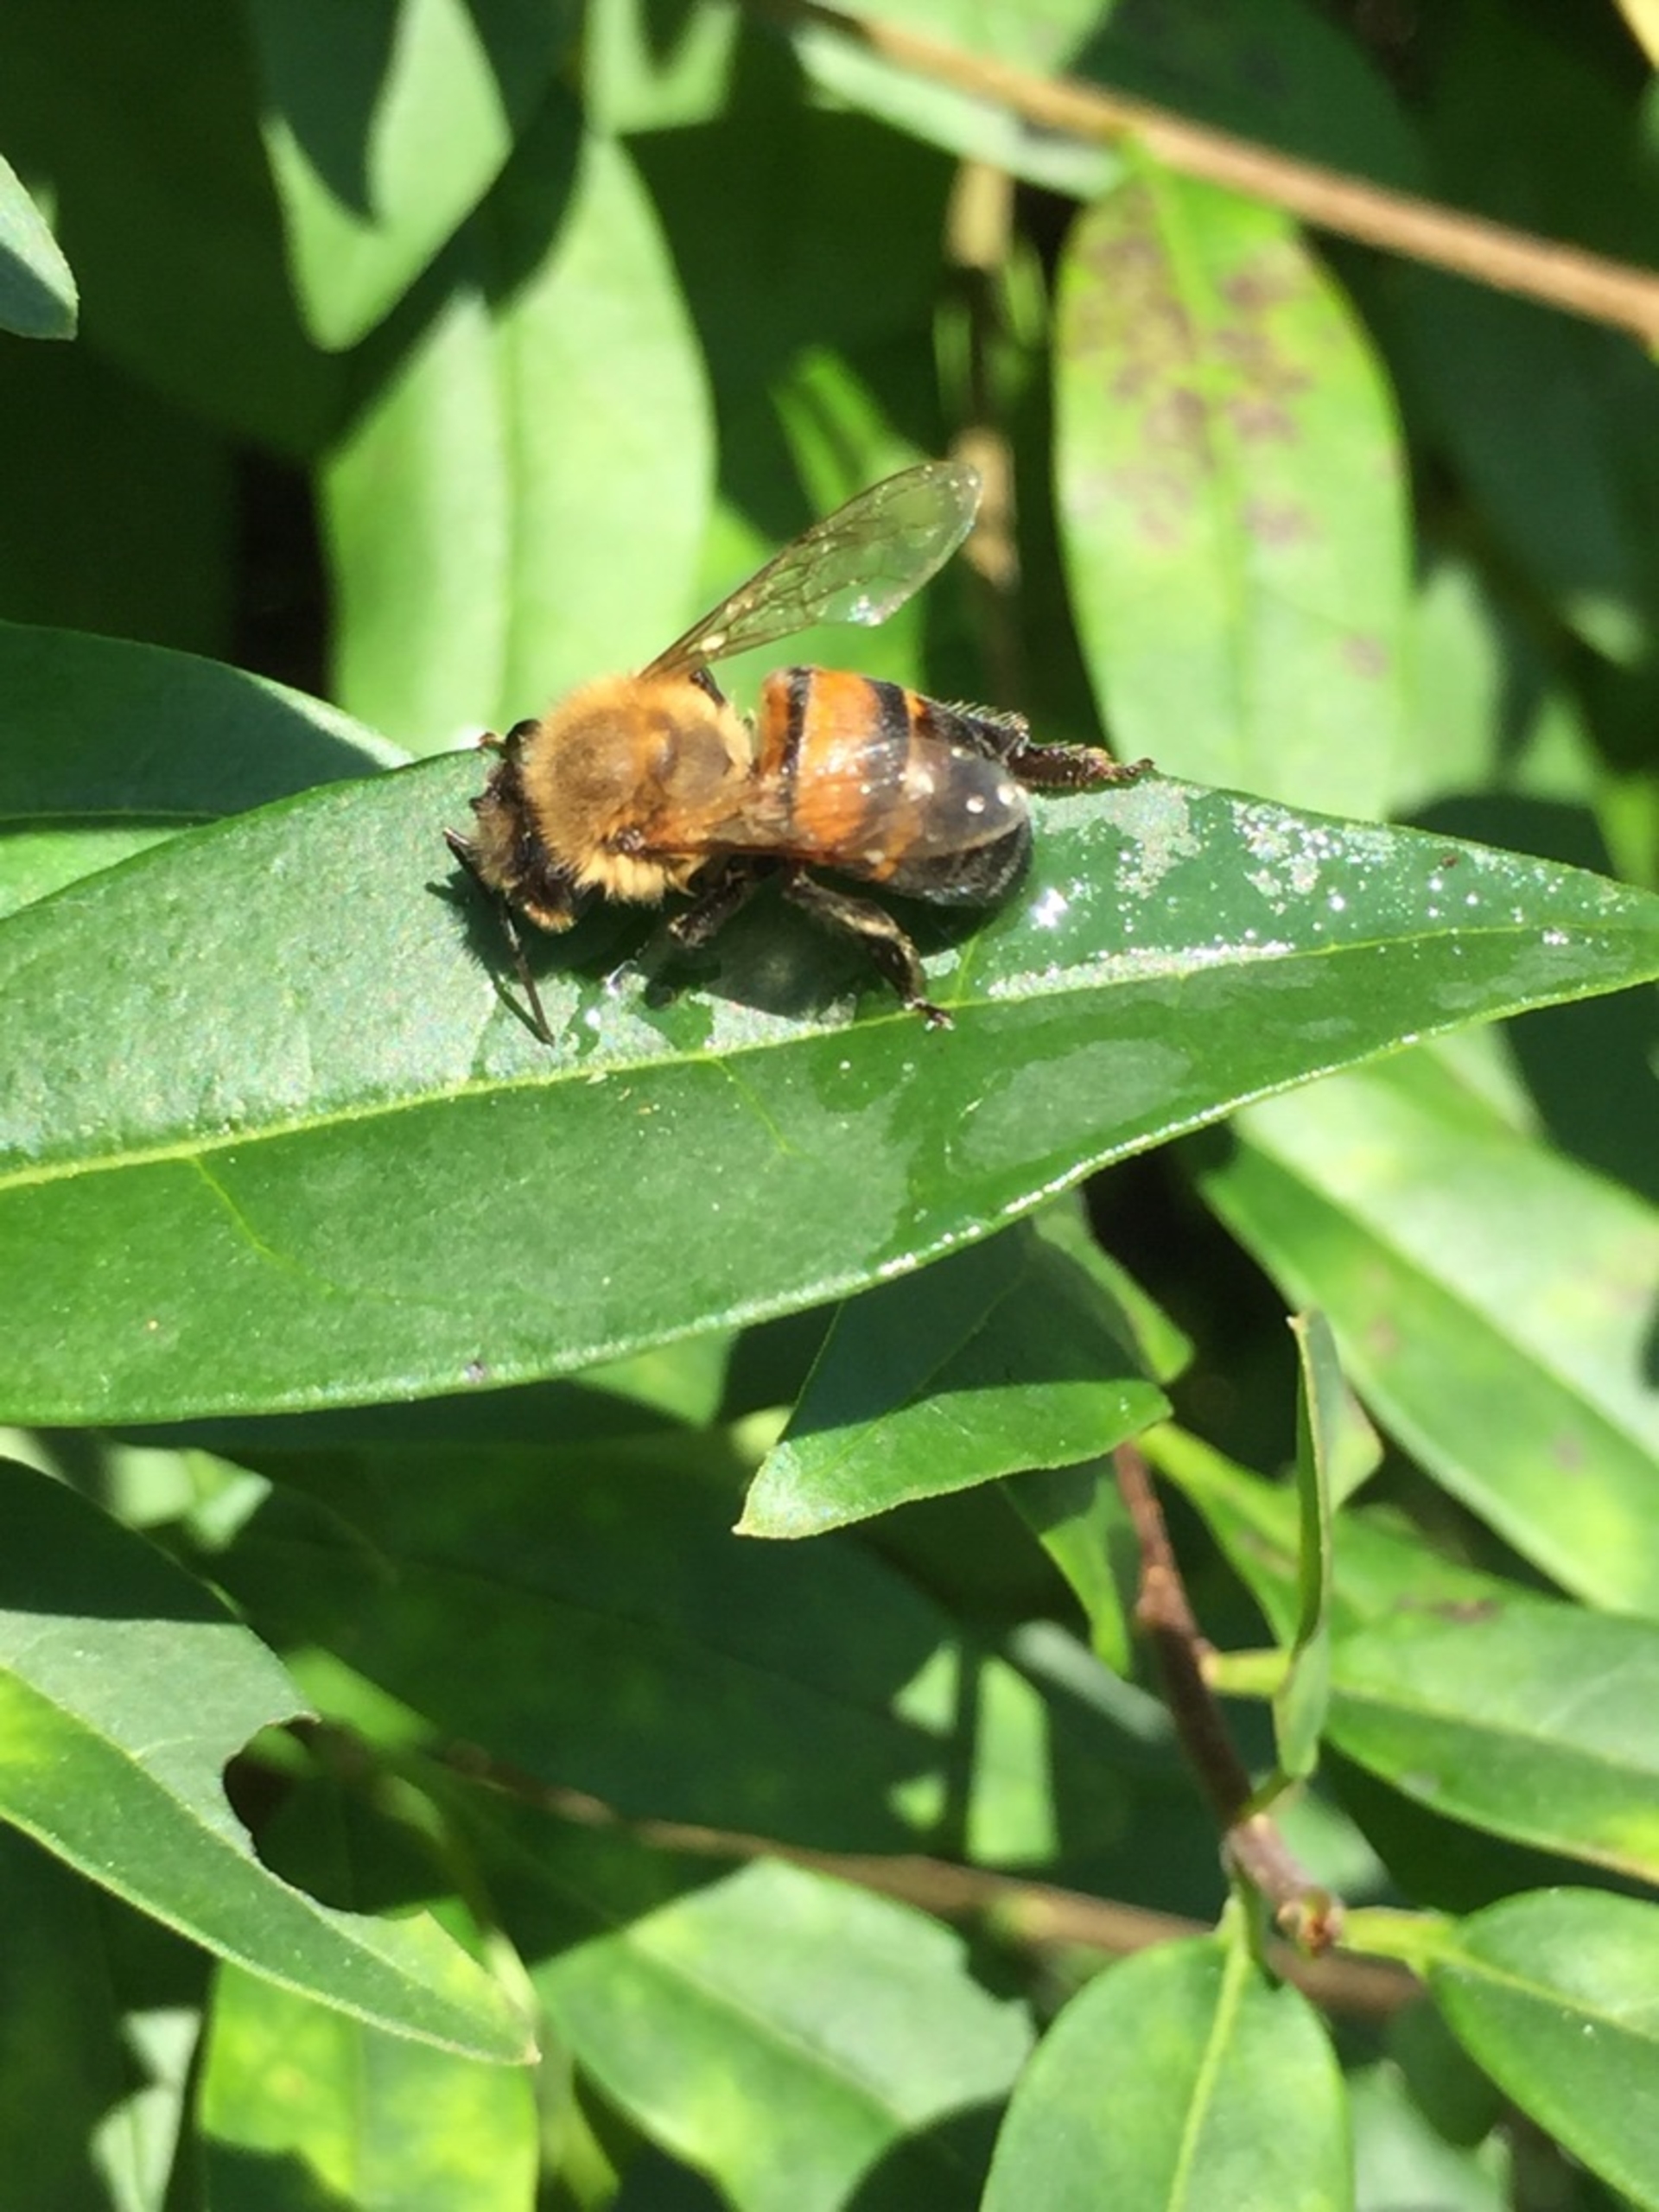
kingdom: Animalia
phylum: Arthropoda
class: Insecta
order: Hymenoptera
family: Apidae
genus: Apis
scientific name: Apis mellifera
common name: Honningbi
